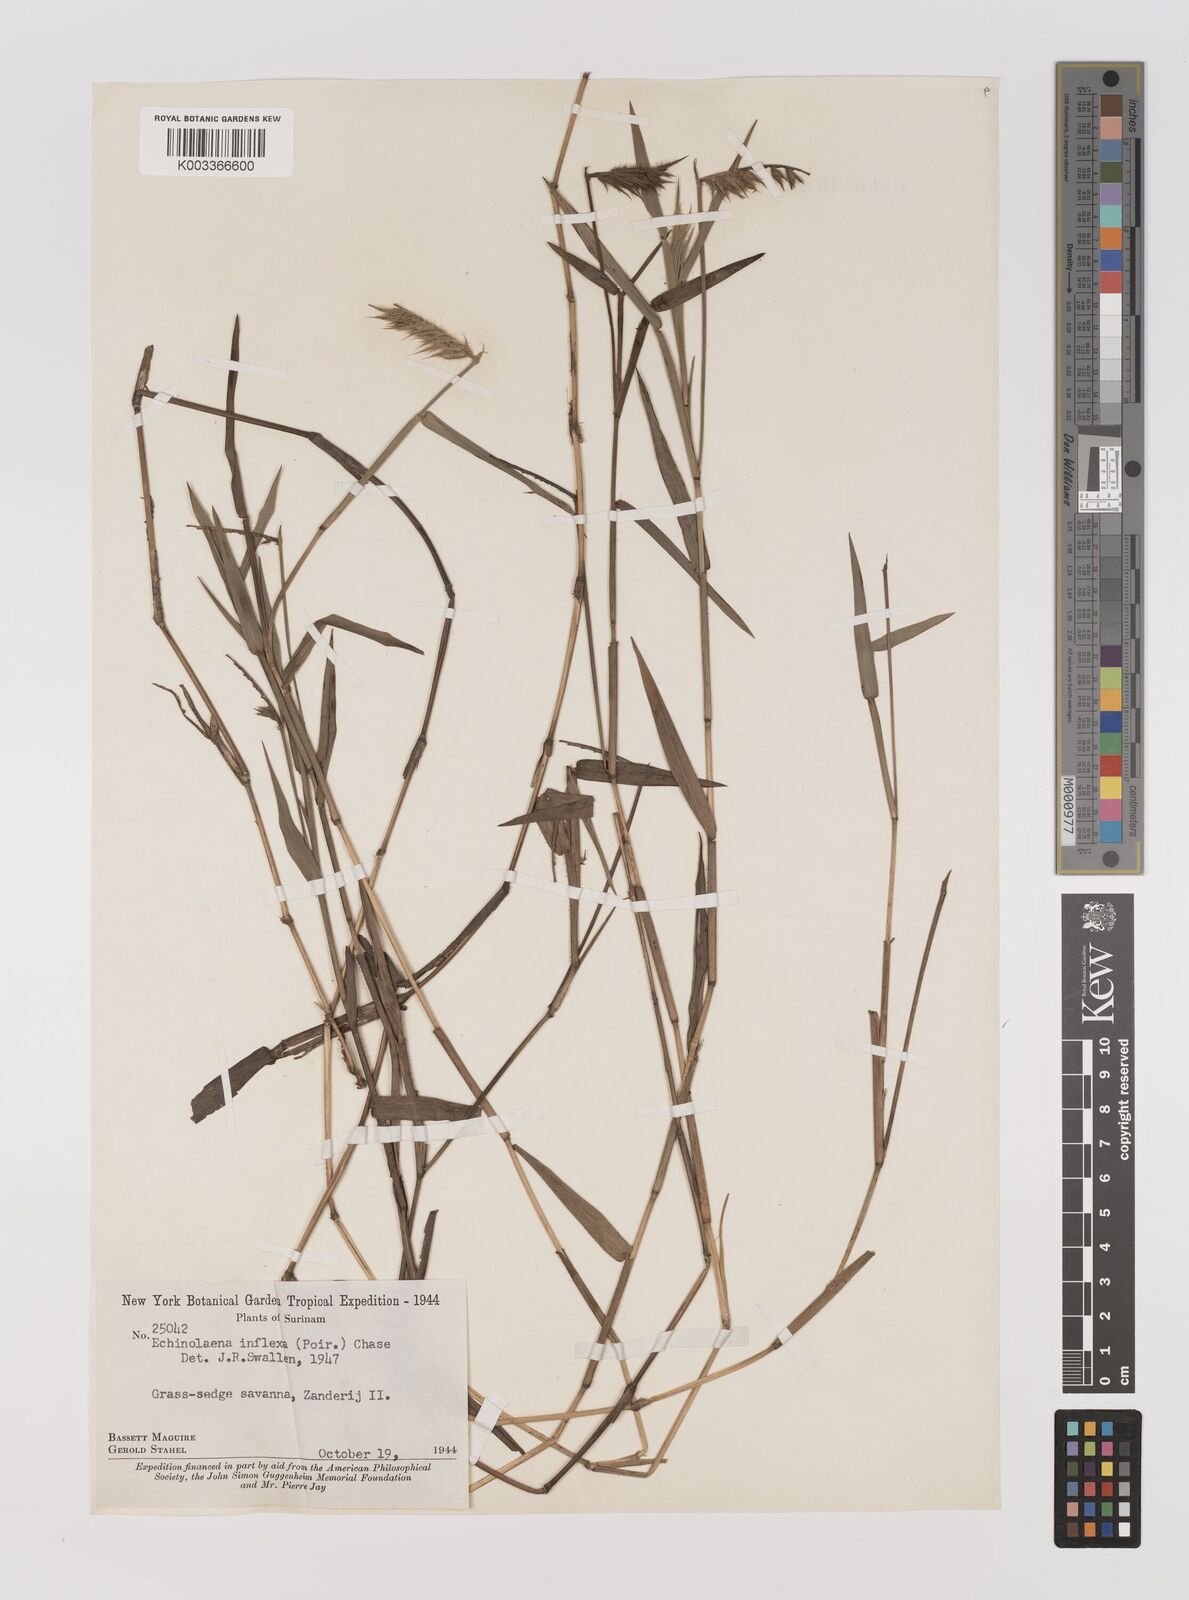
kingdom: Plantae
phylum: Tracheophyta
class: Liliopsida
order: Poales
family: Poaceae
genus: Echinolaena
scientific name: Echinolaena inflexa
